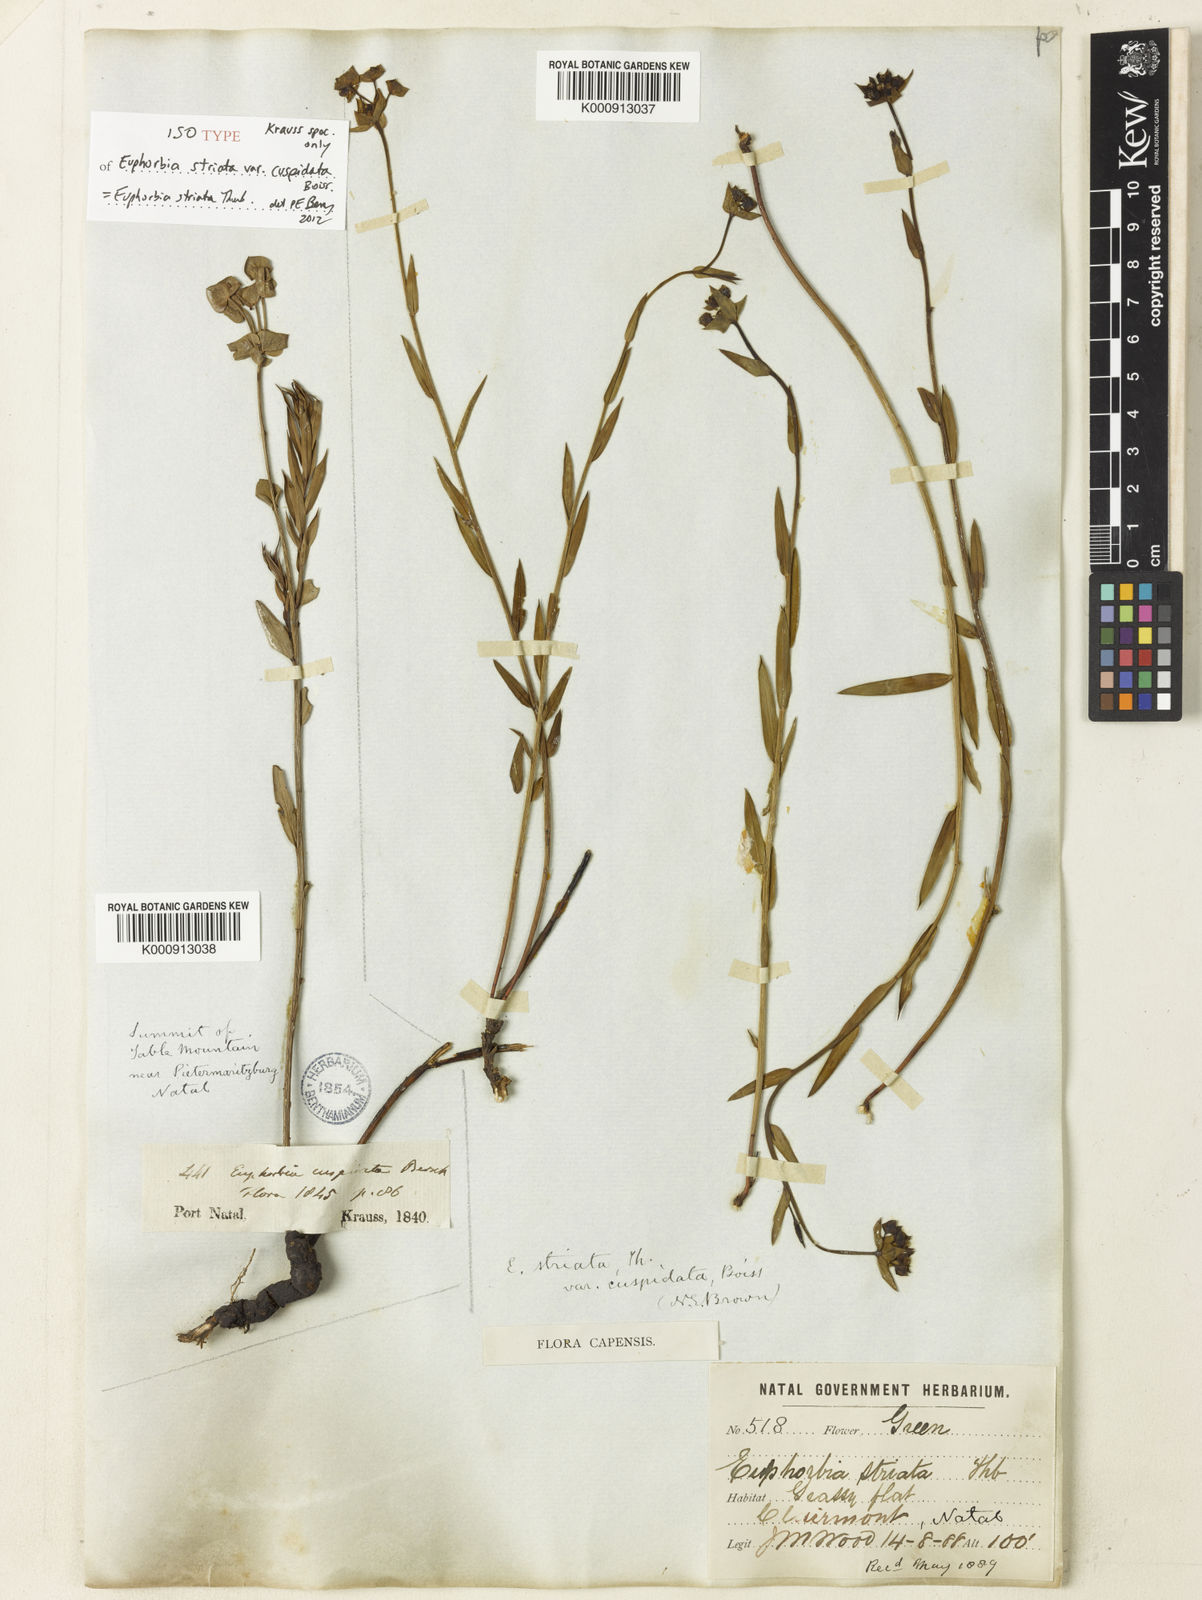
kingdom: Plantae
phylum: Tracheophyta
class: Magnoliopsida
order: Malpighiales
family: Euphorbiaceae
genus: Euphorbia
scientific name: Euphorbia striata
